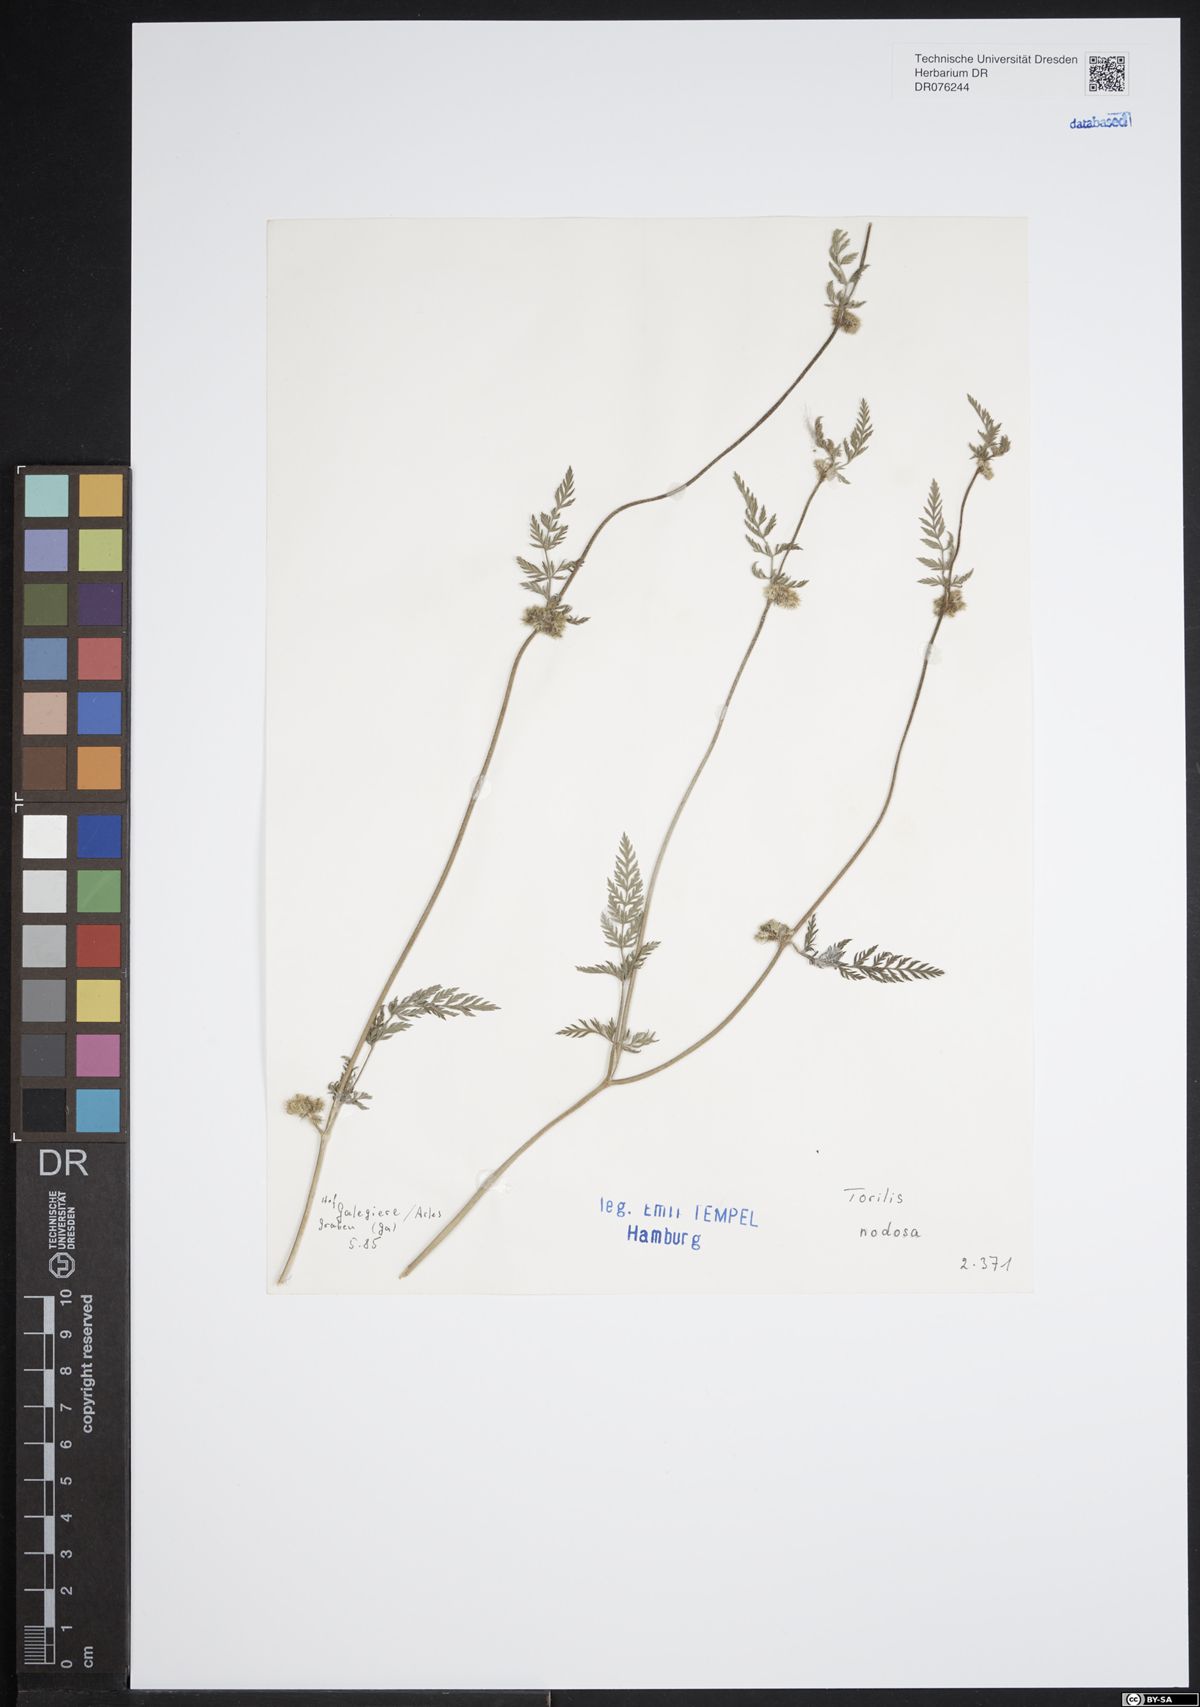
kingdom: Plantae
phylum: Tracheophyta
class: Magnoliopsida
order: Apiales
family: Apiaceae
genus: Torilis
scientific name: Torilis nodosa
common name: Knotted hedge-parsley
